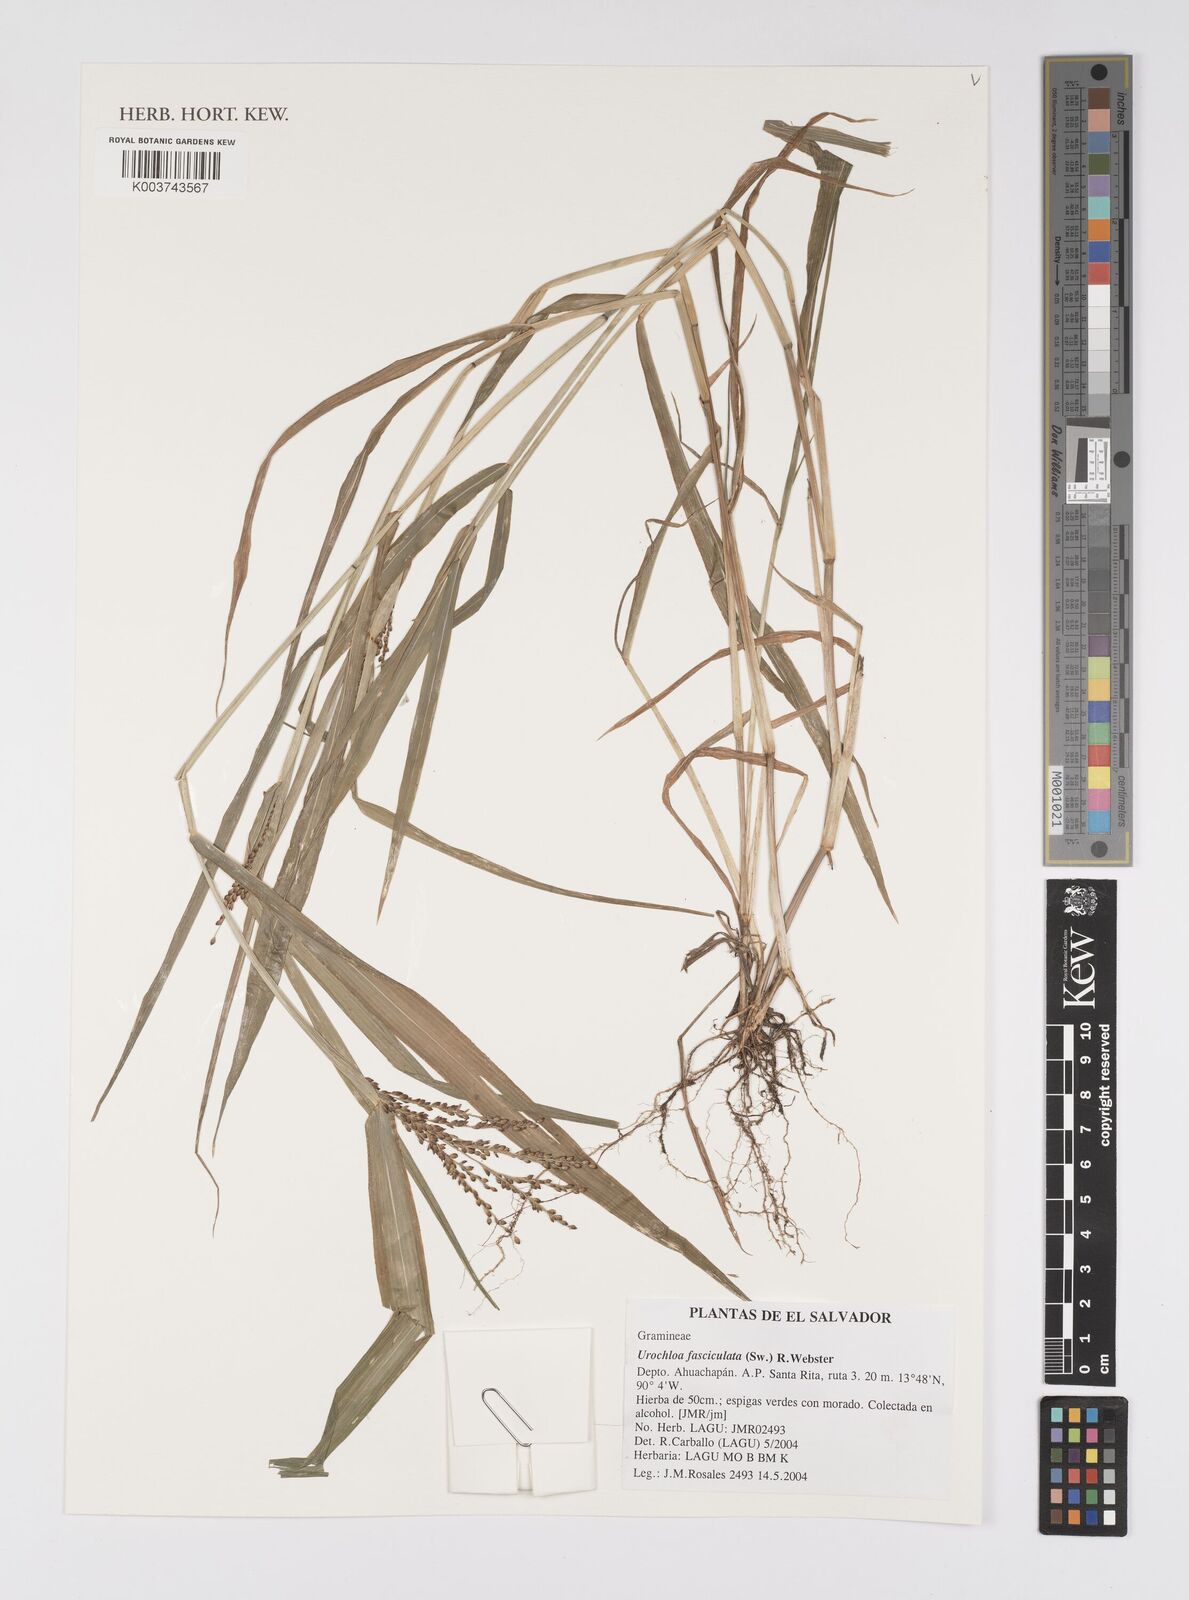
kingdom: Plantae
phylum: Tracheophyta
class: Liliopsida
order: Poales
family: Poaceae
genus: Urochloa
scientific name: Urochloa fusca
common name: Browntop signal grass
